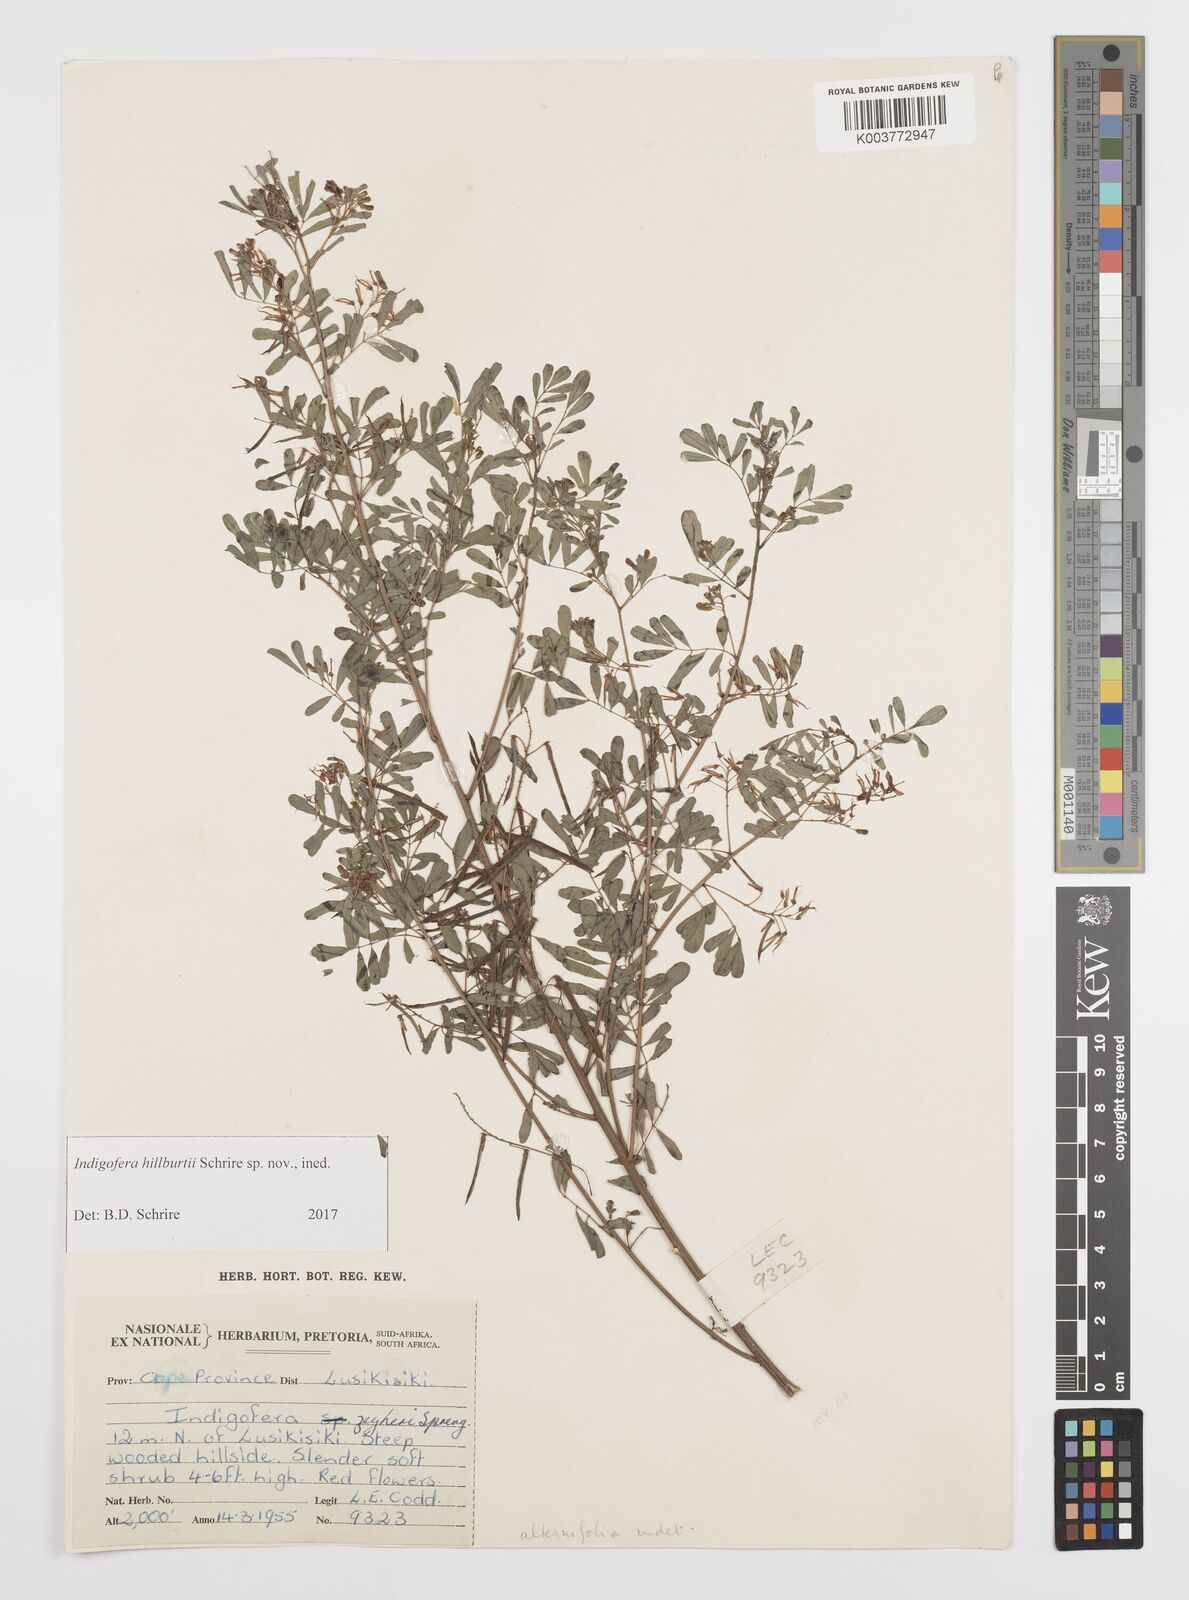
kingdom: Plantae
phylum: Tracheophyta
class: Magnoliopsida
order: Fabales
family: Fabaceae
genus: Indigofera
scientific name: Indigofera
